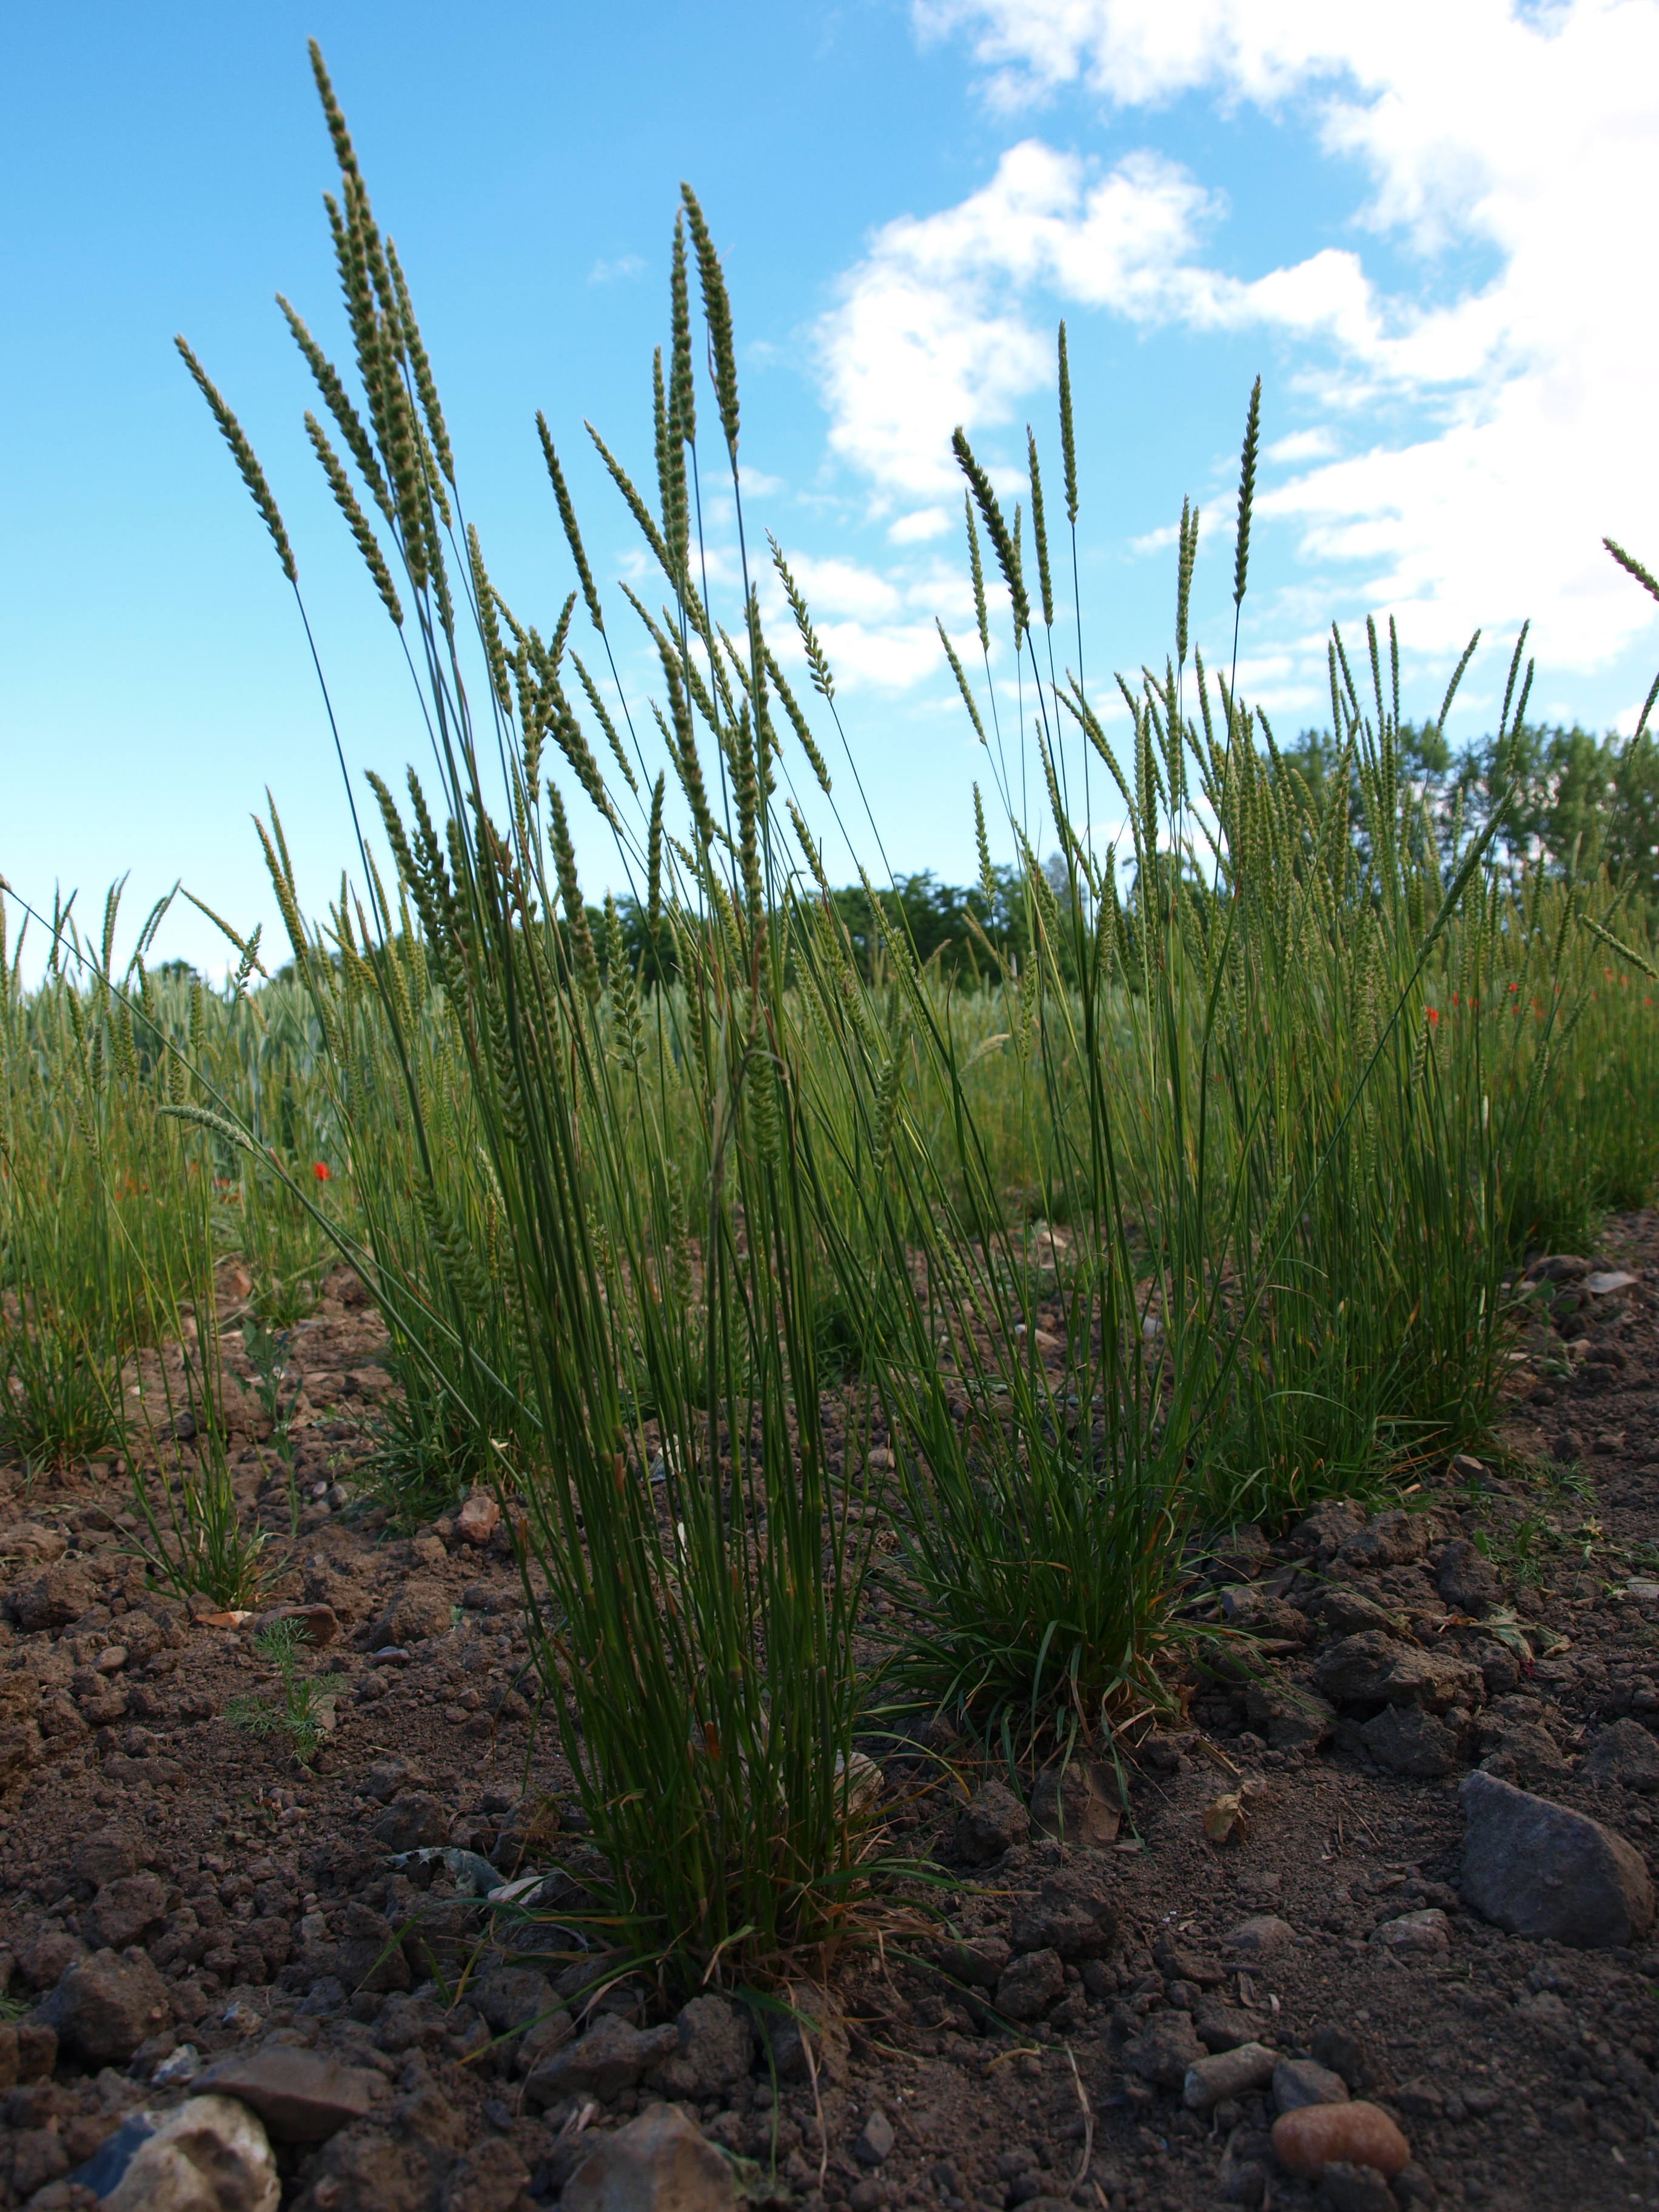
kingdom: Plantae
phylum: Tracheophyta
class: Liliopsida
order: Poales
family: Poaceae
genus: Cynosurus
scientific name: Cynosurus cristatus
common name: Crested dog's-tail
